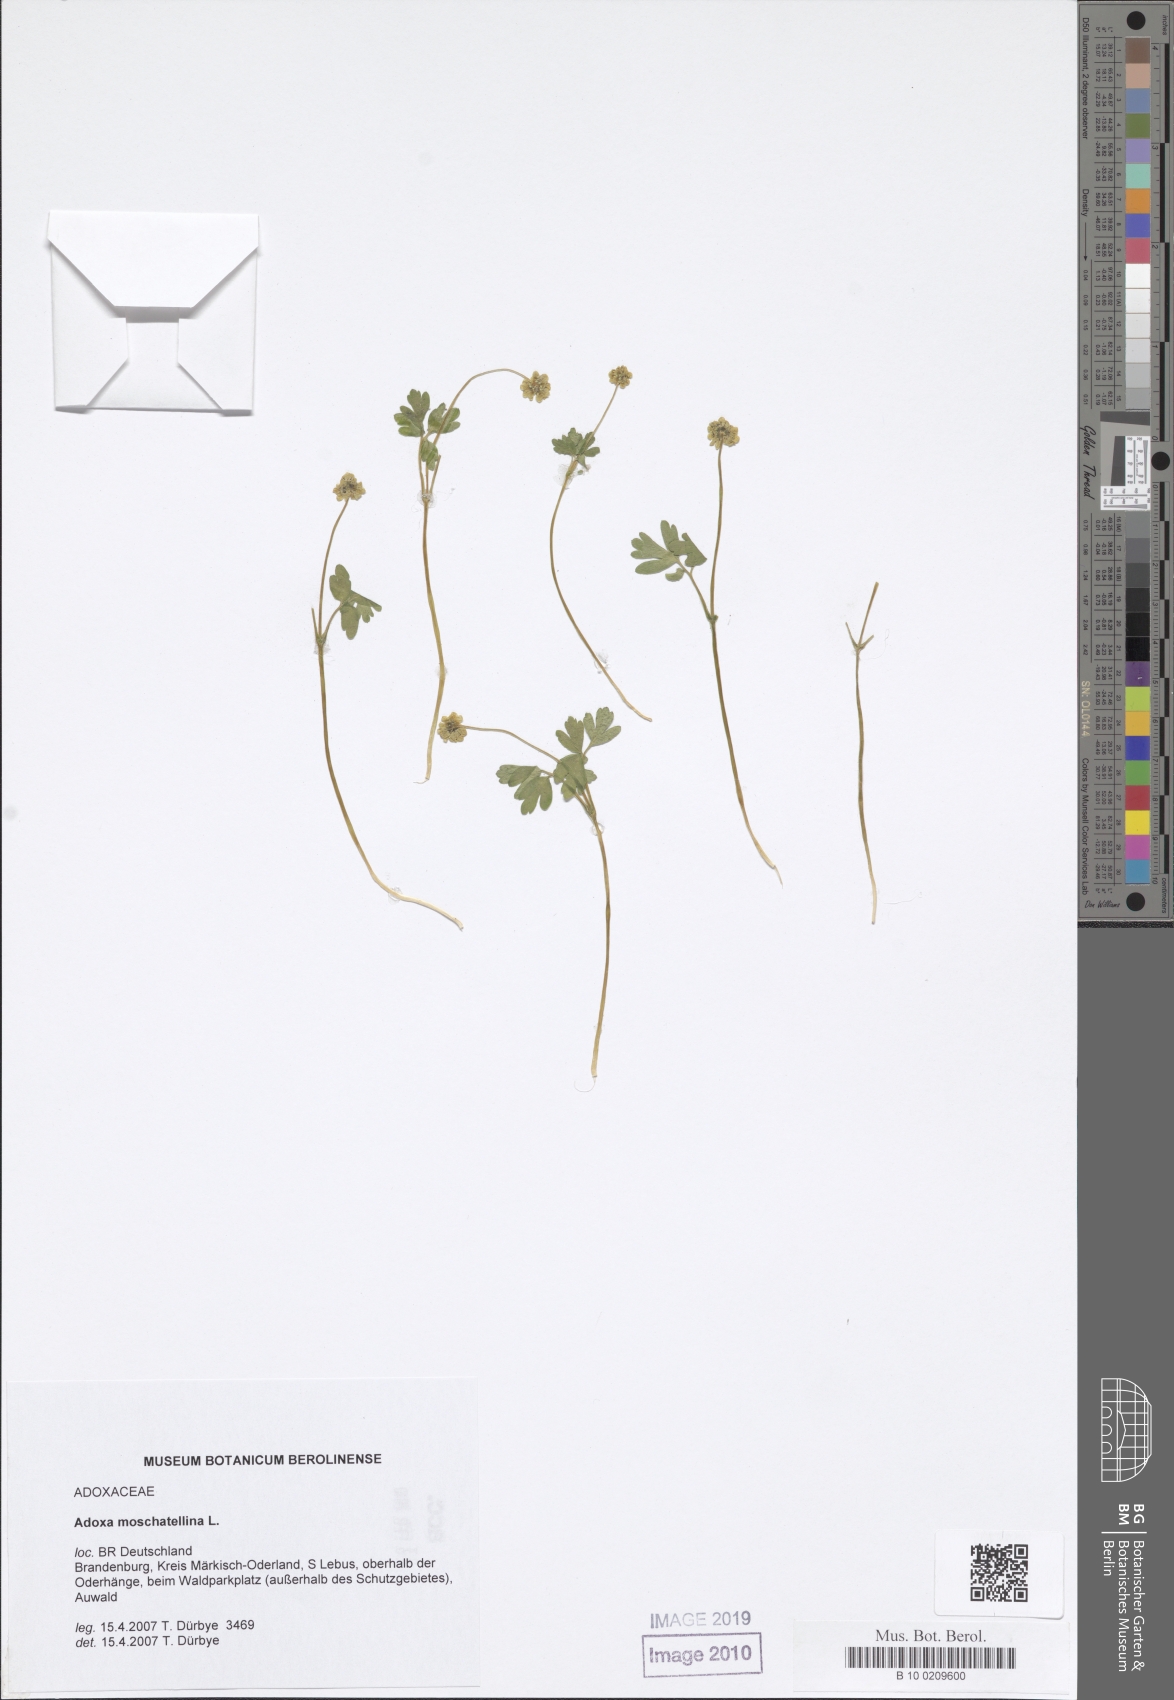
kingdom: Plantae
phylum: Tracheophyta
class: Magnoliopsida
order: Dipsacales
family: Viburnaceae
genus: Adoxa
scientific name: Adoxa moschatellina
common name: Moschatel
